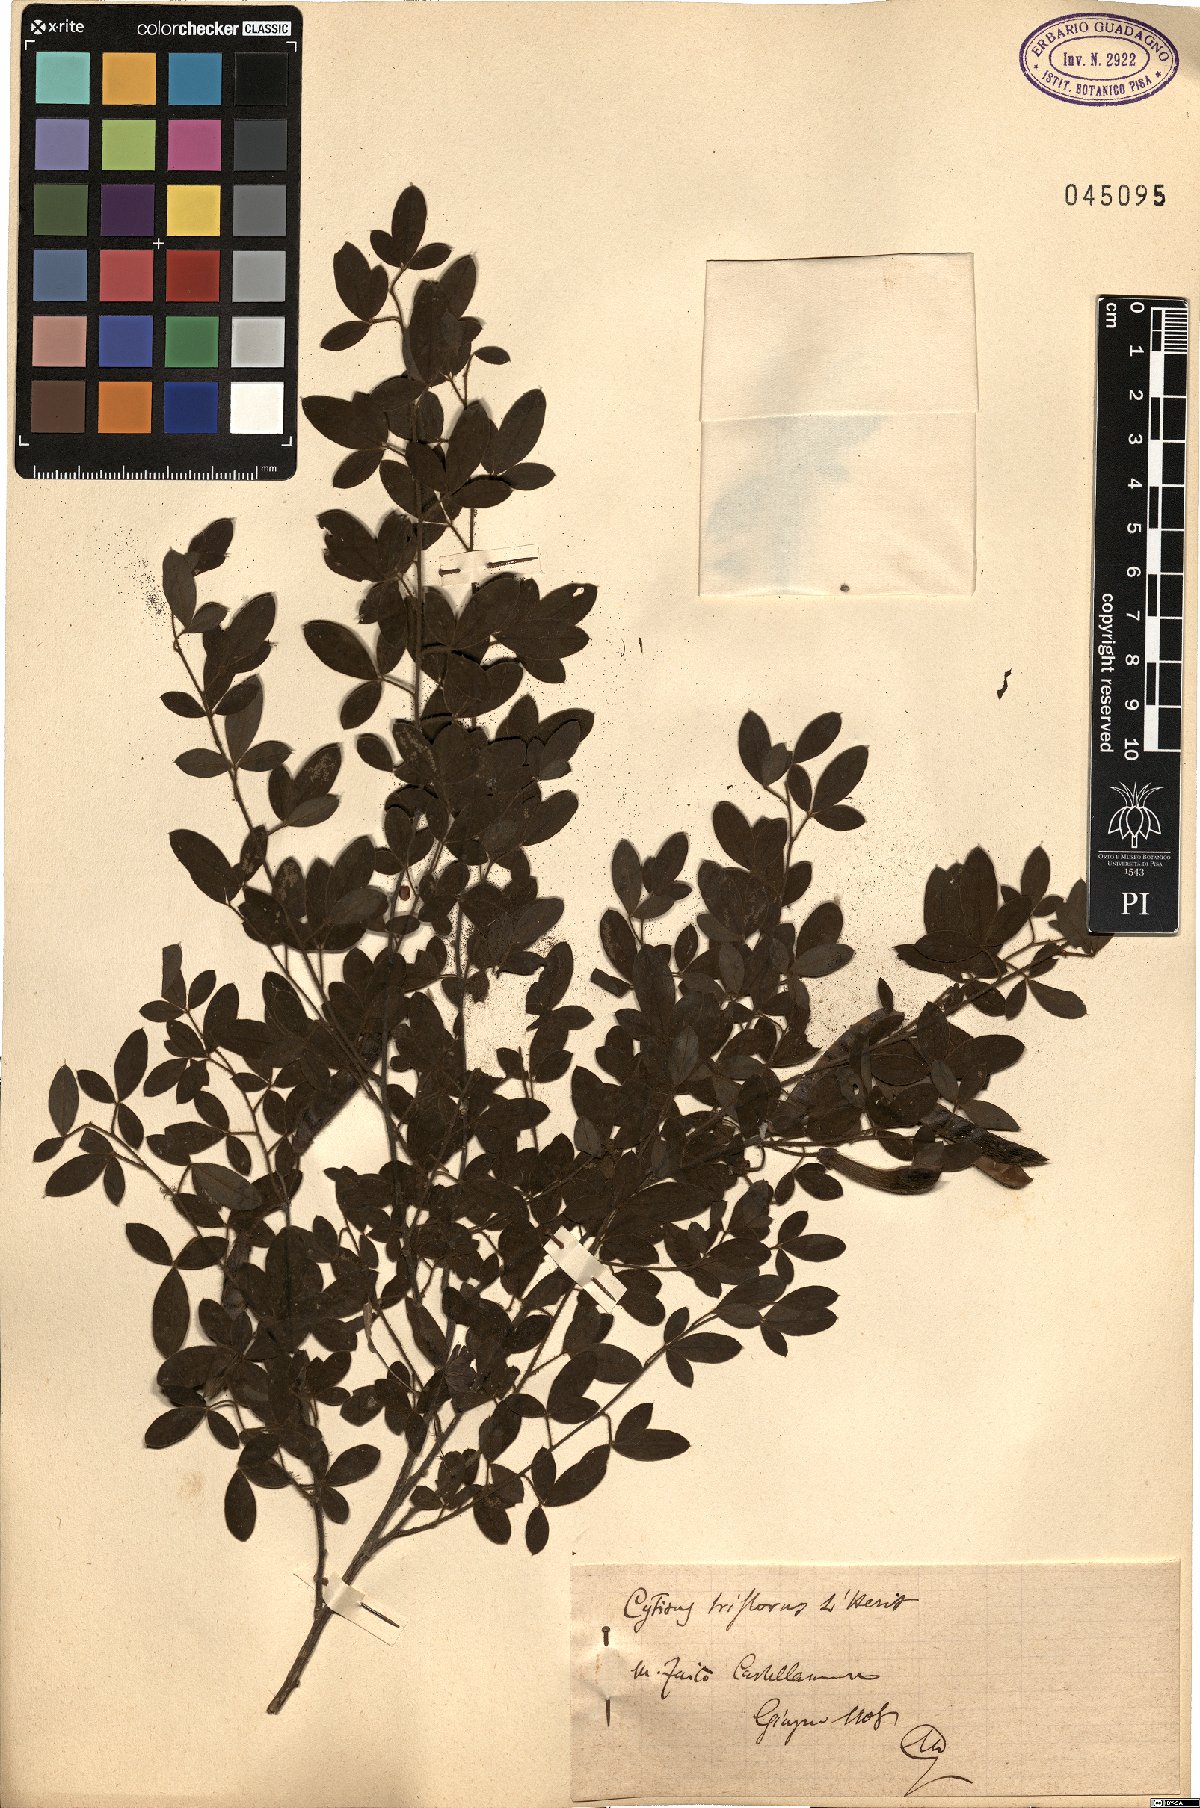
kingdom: Plantae
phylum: Tracheophyta
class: Magnoliopsida
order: Fabales
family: Fabaceae
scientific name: Fabaceae
